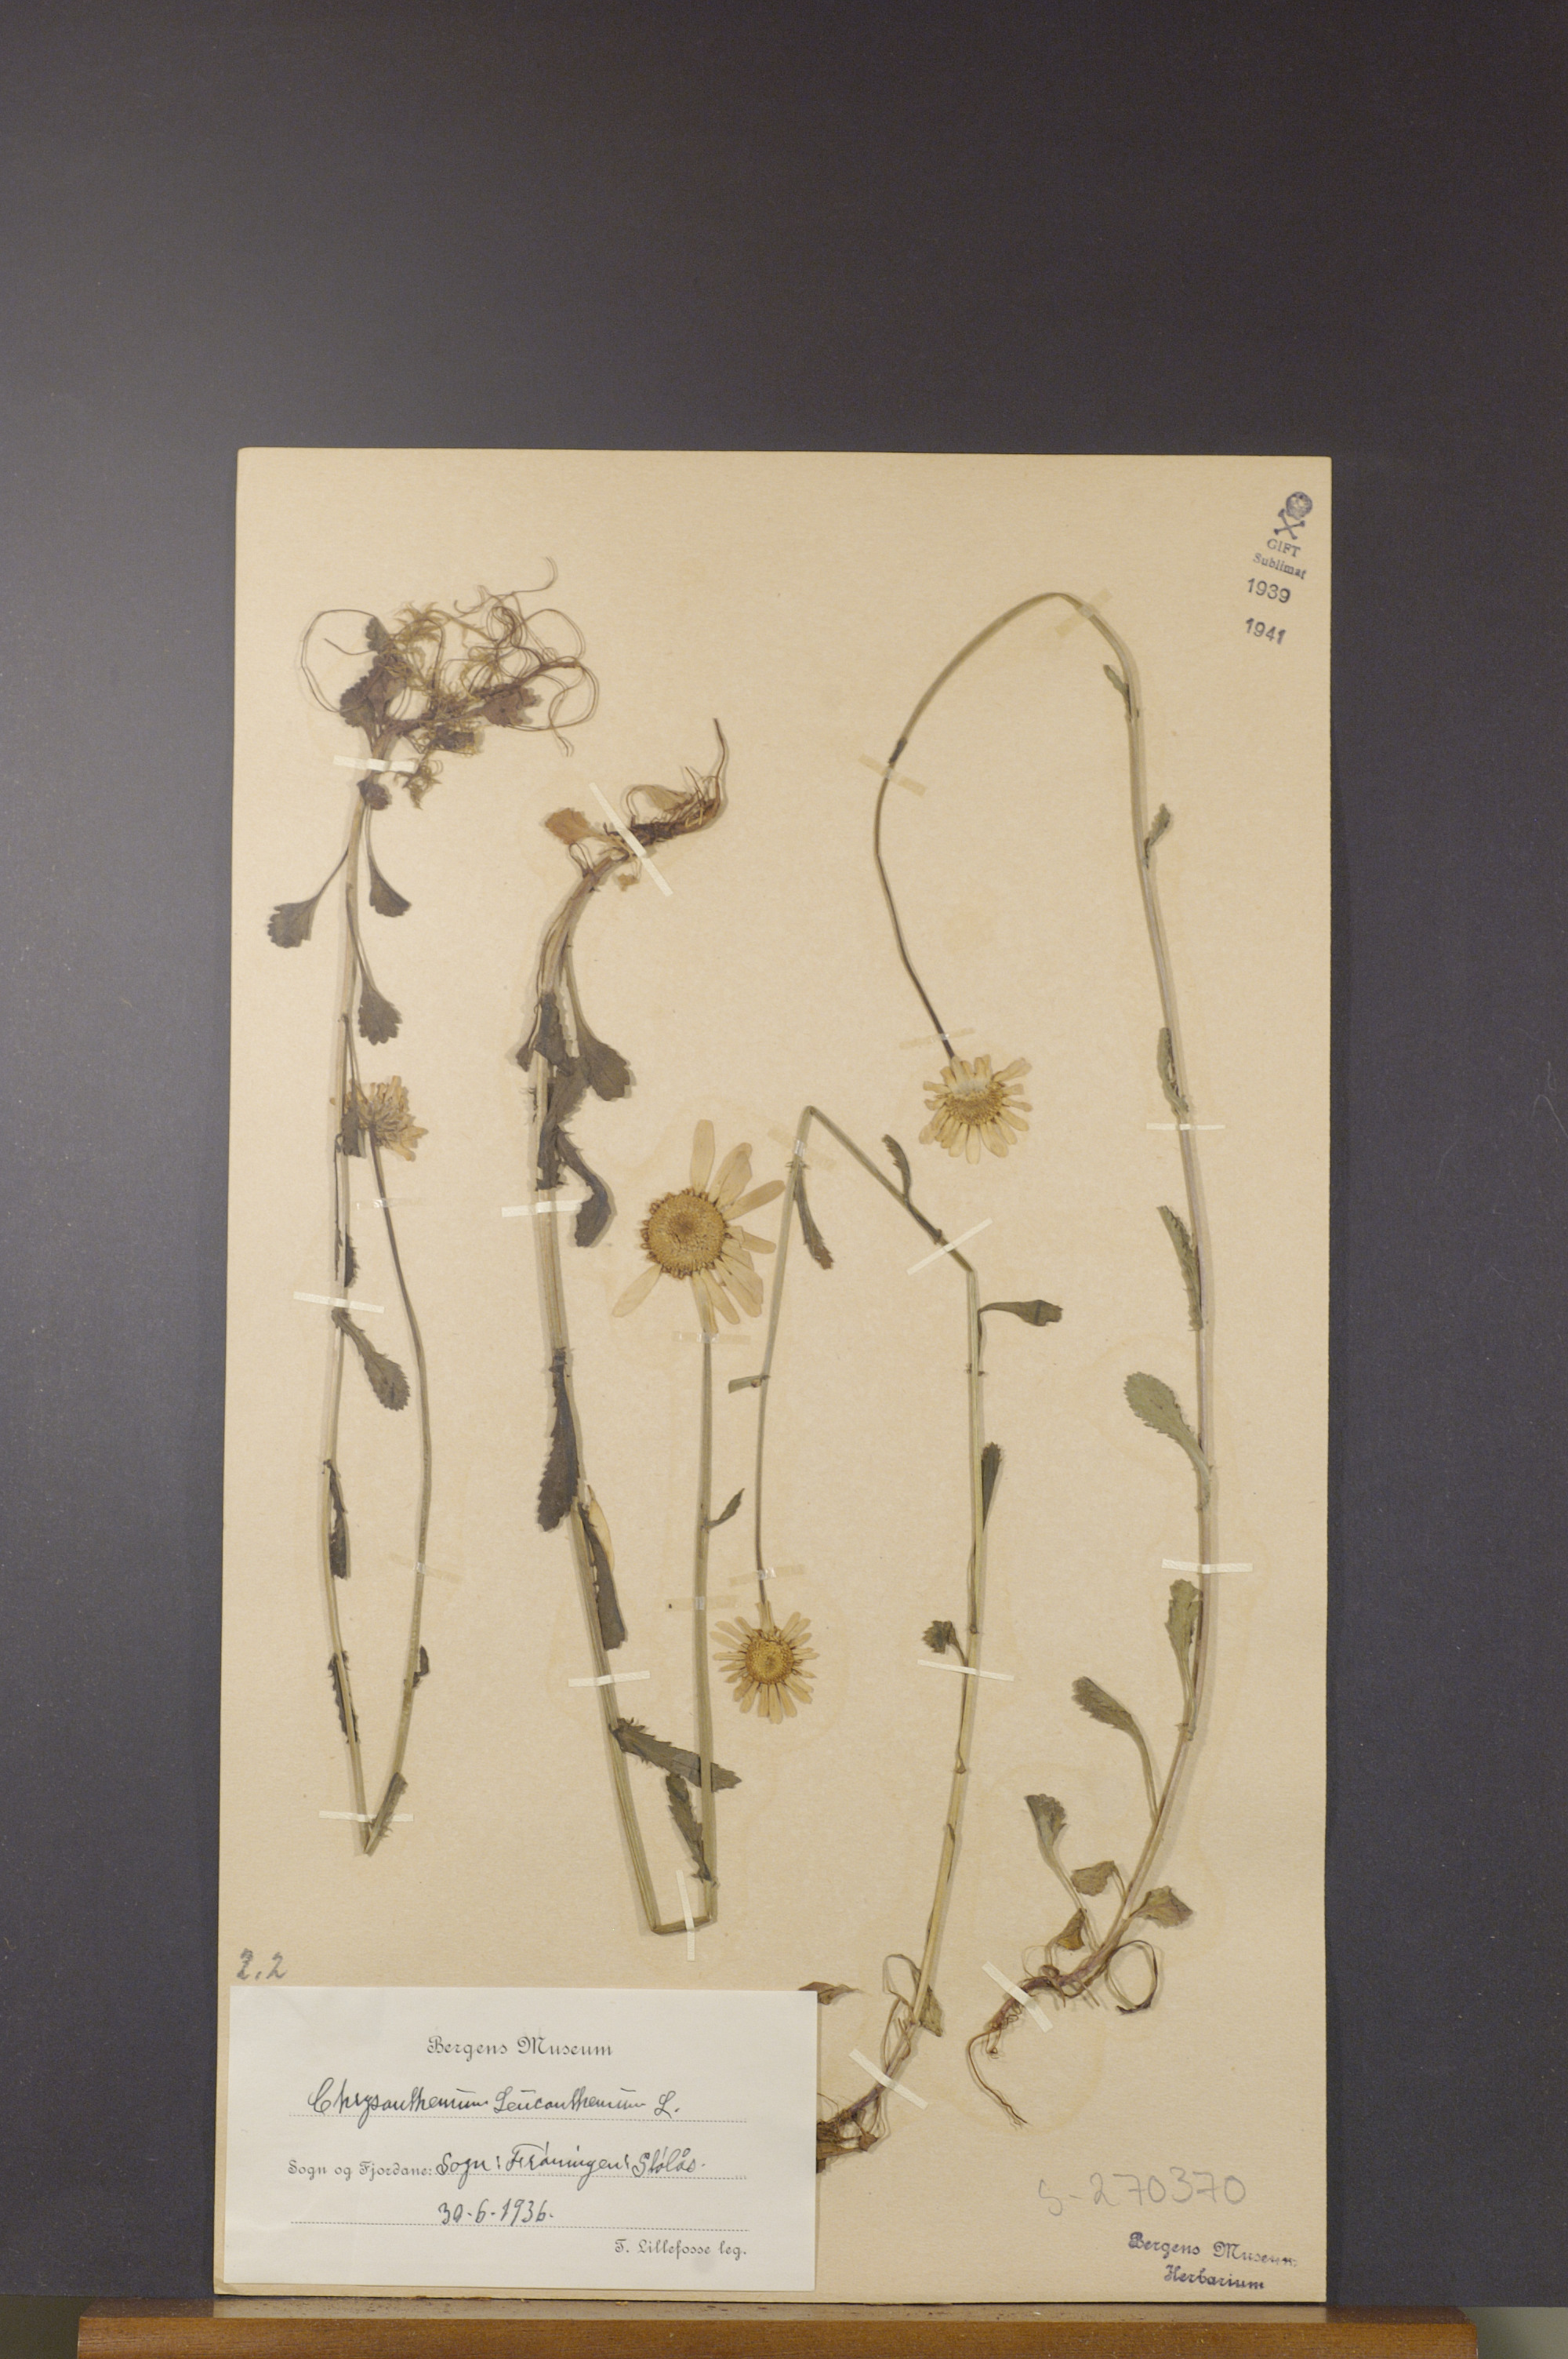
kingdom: Plantae
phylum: Tracheophyta
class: Magnoliopsida
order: Asterales
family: Asteraceae
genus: Leucanthemum
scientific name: Leucanthemum vulgare
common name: Oxeye daisy
